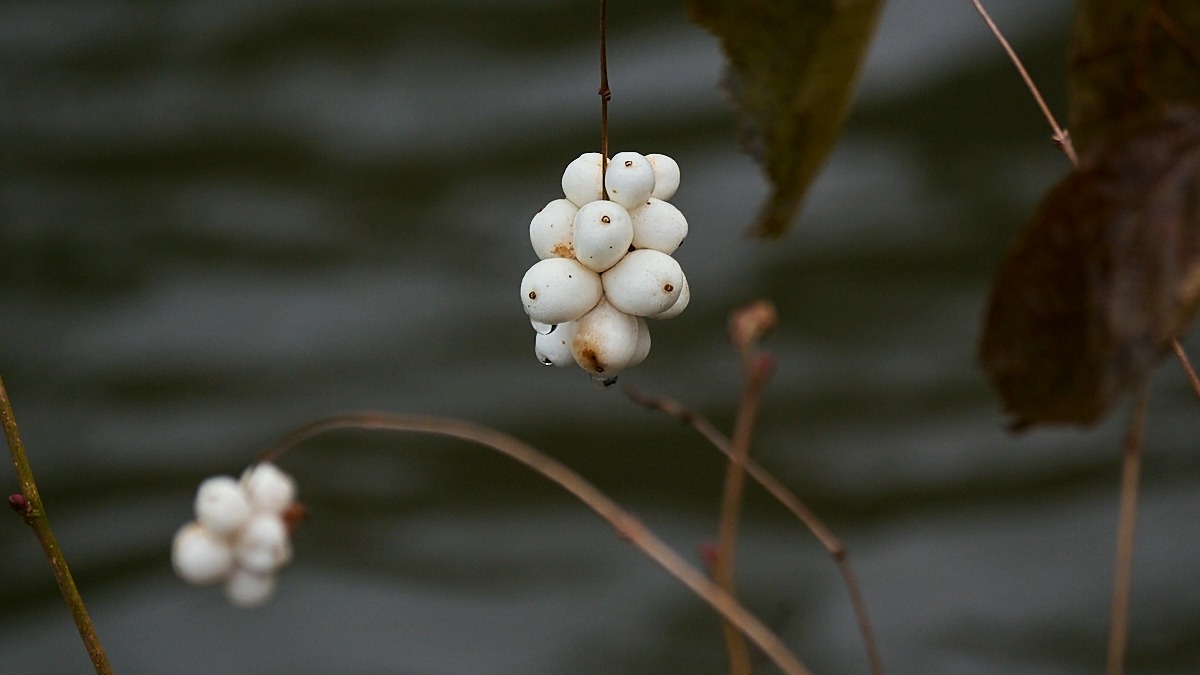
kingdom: Plantae
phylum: Tracheophyta
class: Magnoliopsida
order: Dipsacales
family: Caprifoliaceae
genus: Symphoricarpos
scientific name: Symphoricarpos albus
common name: Almindelig snebær
